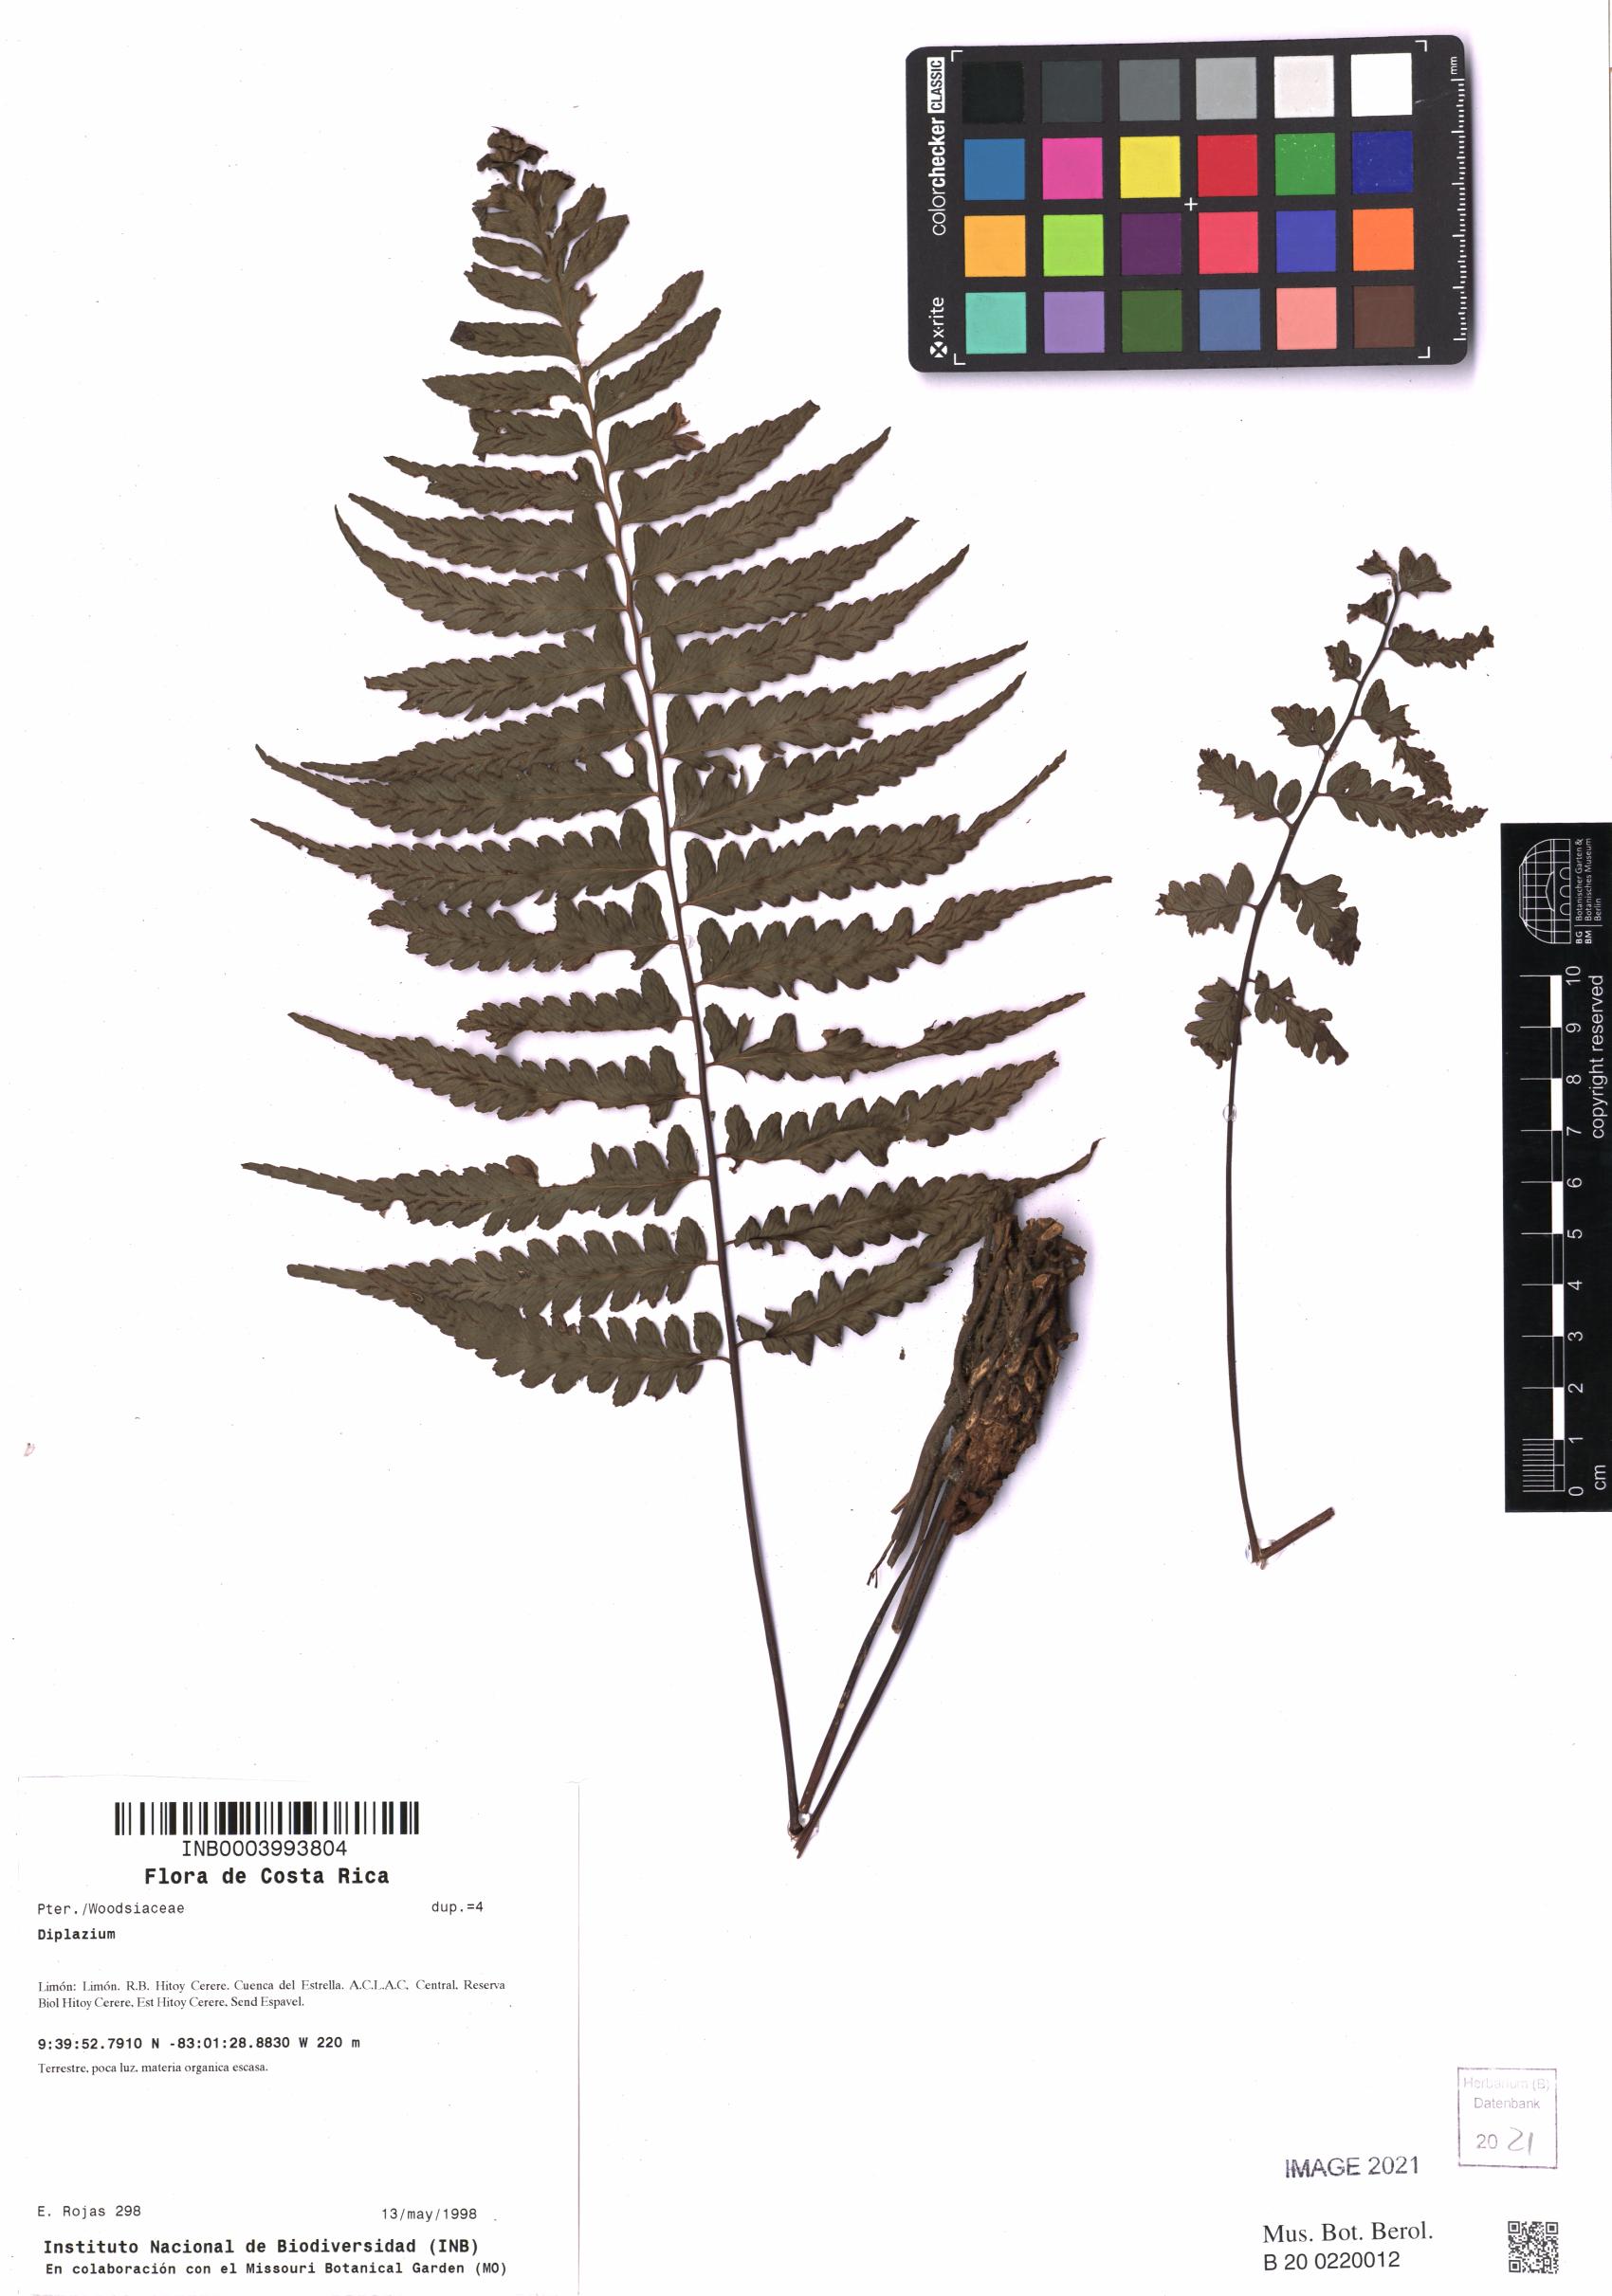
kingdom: Plantae
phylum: Tracheophyta
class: Polypodiopsida
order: Polypodiales
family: Athyriaceae
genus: Diplazium
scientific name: Diplazium
